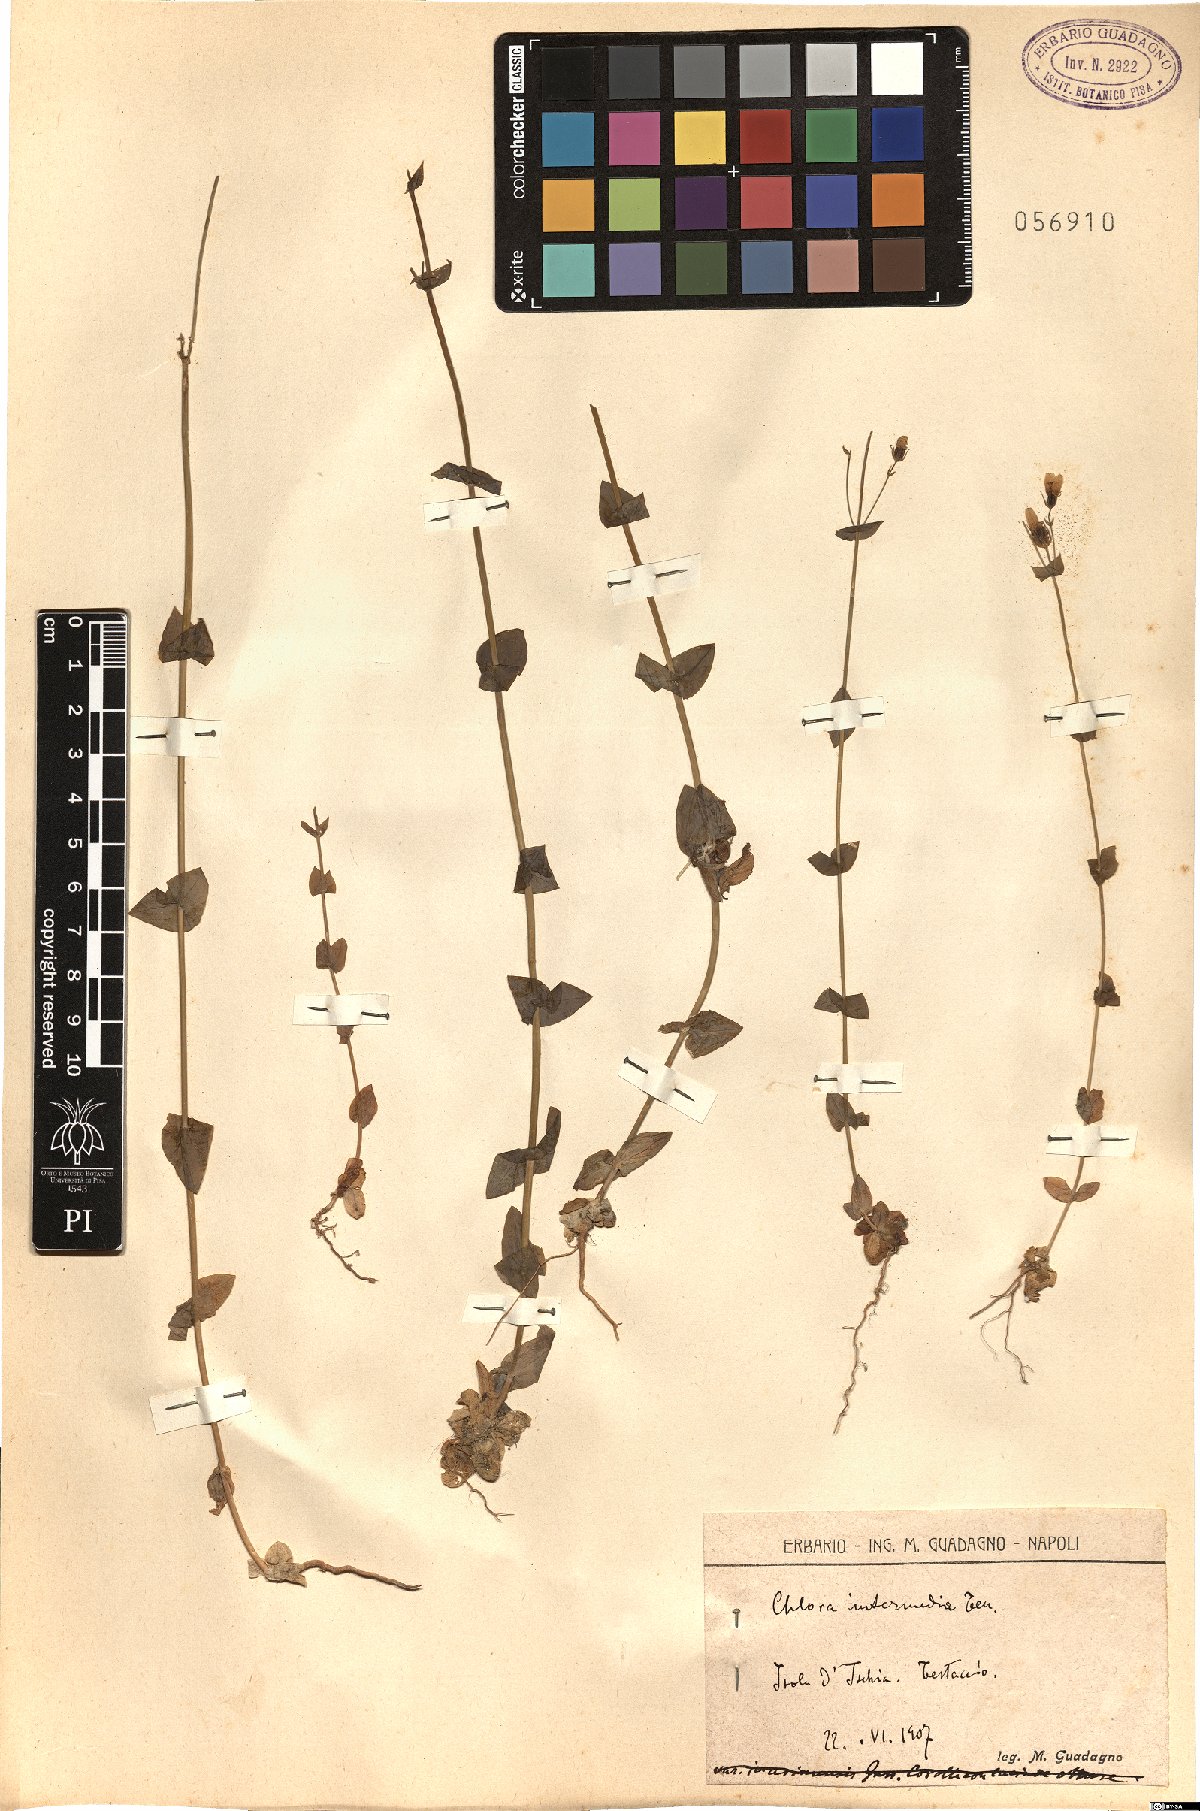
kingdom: Plantae
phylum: Tracheophyta
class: Magnoliopsida
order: Gentianales
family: Gentianaceae
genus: Blackstonia
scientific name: Blackstonia perfoliata
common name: Yellow-wort
